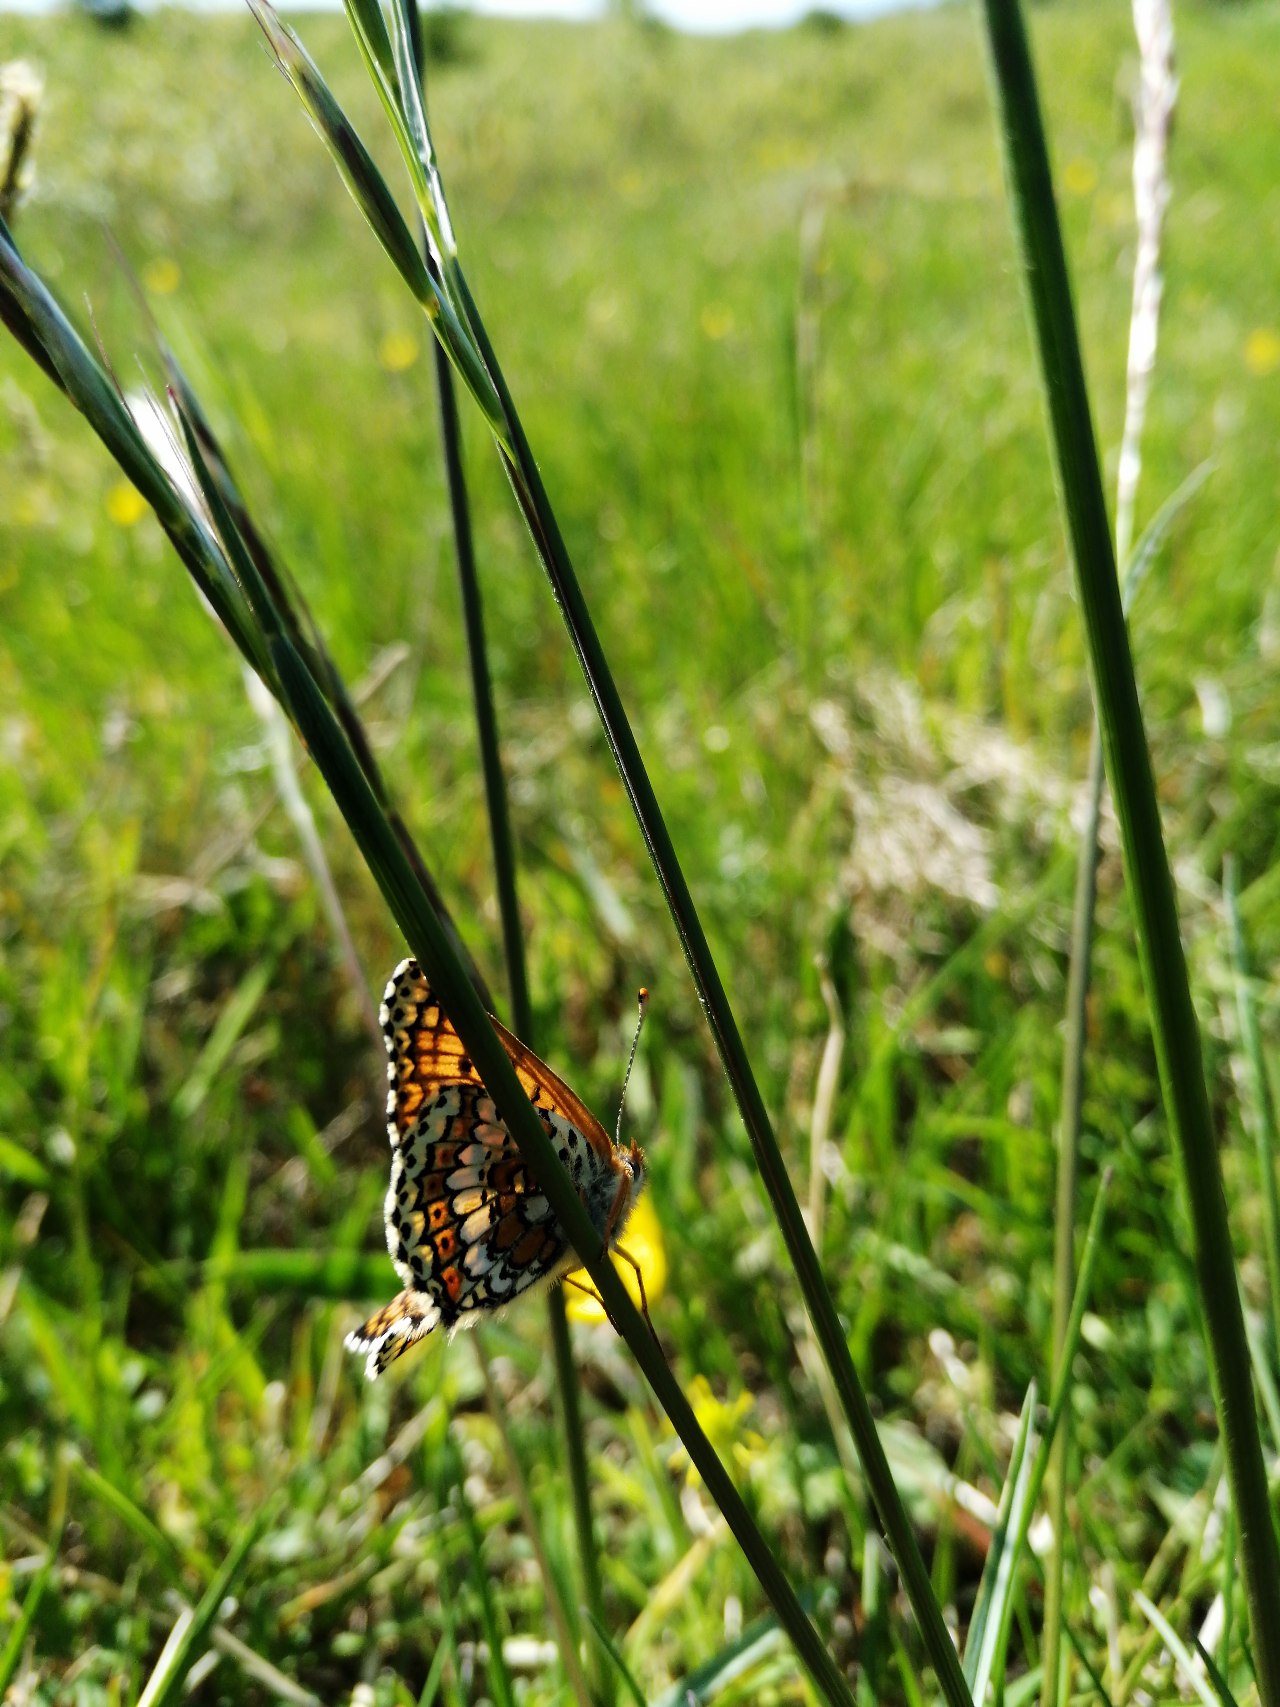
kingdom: Animalia
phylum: Arthropoda
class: Insecta
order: Lepidoptera
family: Nymphalidae
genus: Melitaea
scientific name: Melitaea cinxia
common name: Okkergul pletvinge
